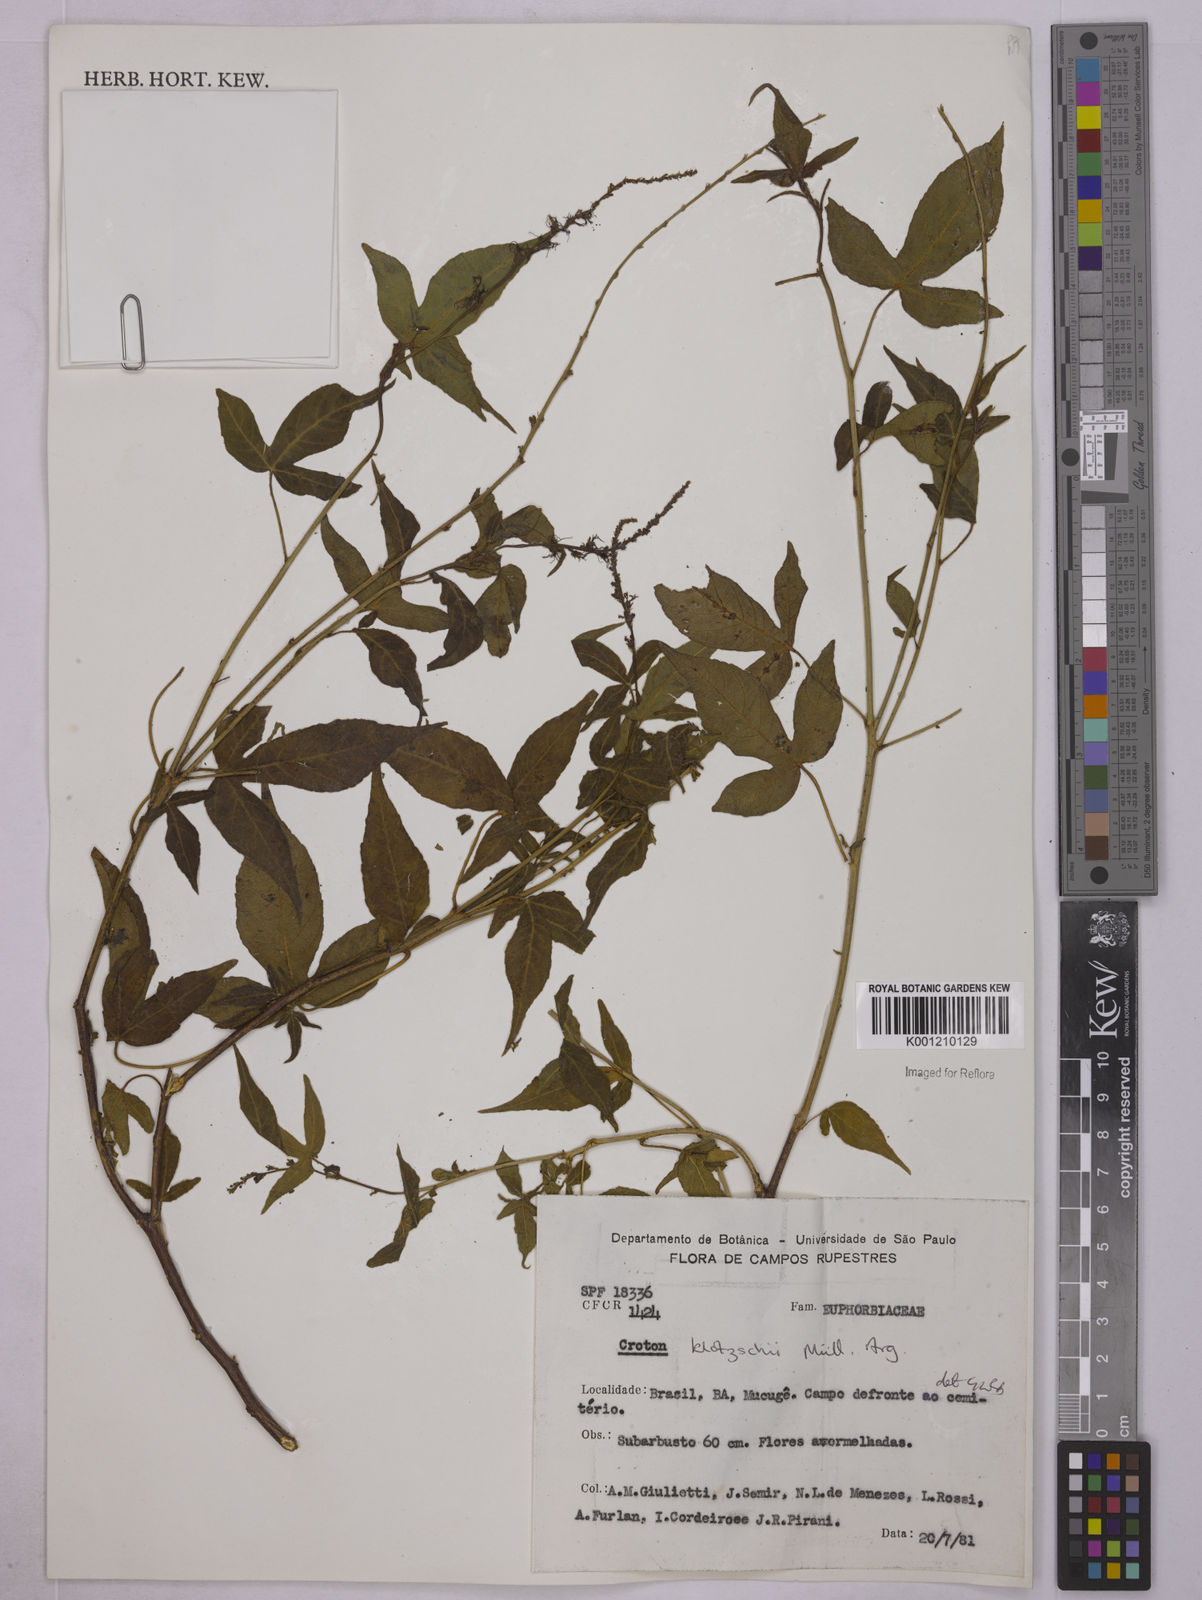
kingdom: Plantae
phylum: Tracheophyta
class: Magnoliopsida
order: Malpighiales
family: Euphorbiaceae
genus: Astraea
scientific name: Astraea macroura
